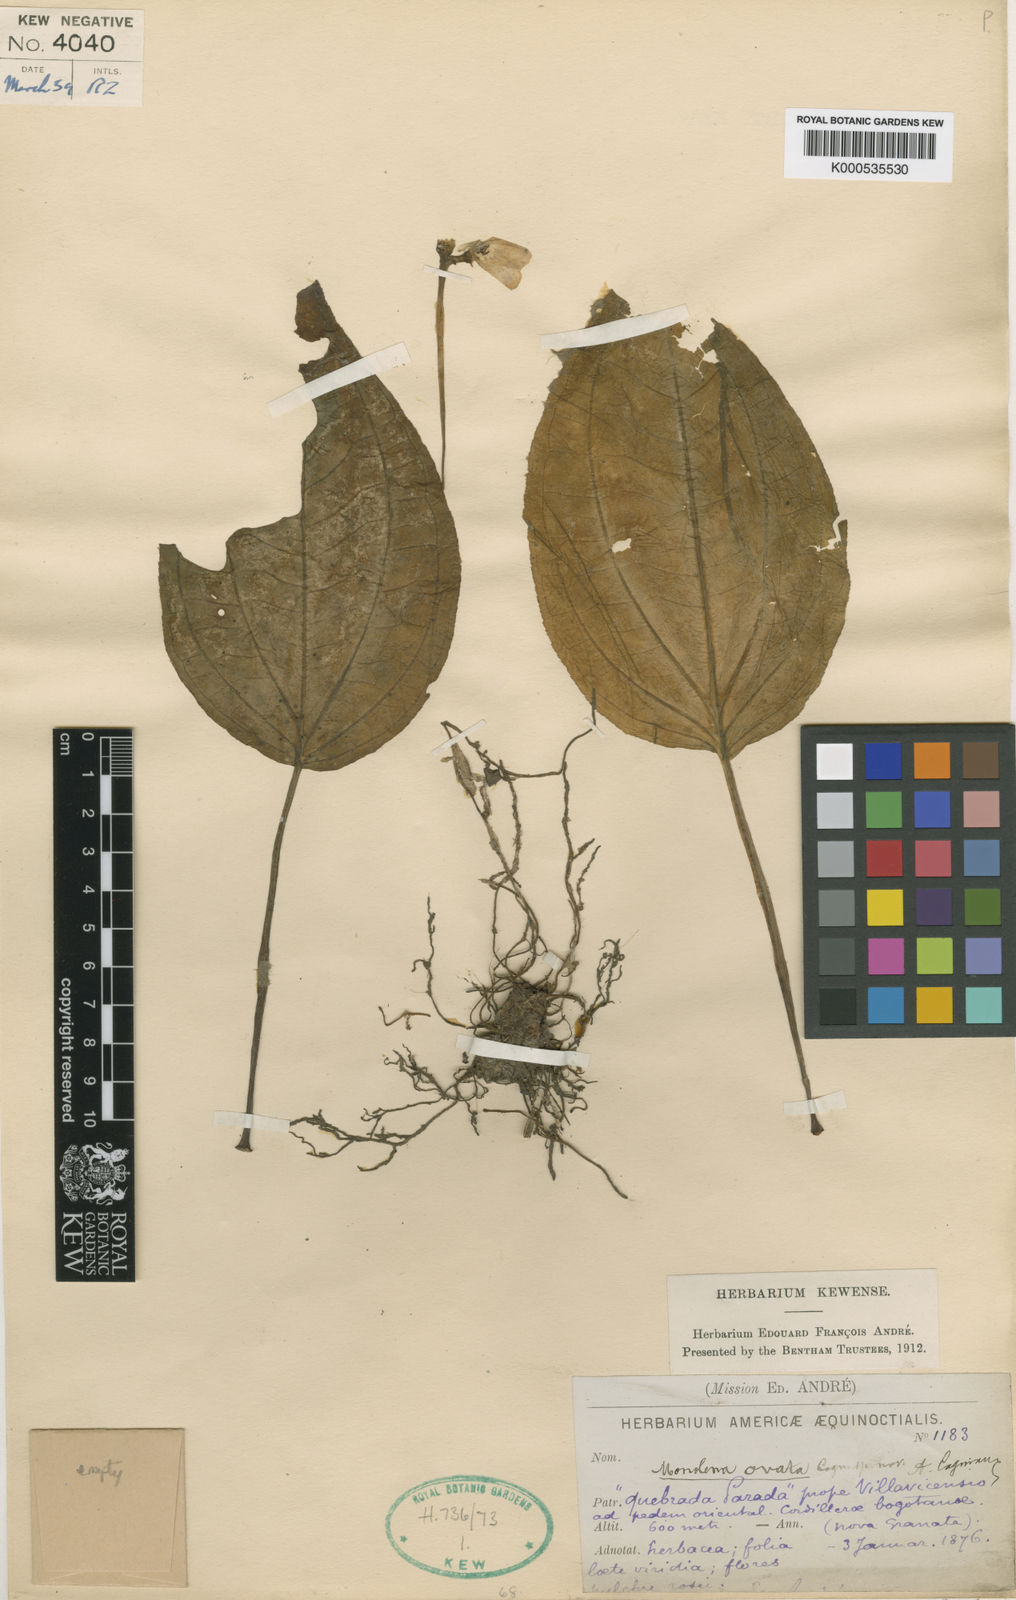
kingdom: Plantae
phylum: Tracheophyta
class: Magnoliopsida
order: Myrtales
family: Melastomataceae
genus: Monolena
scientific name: Monolena ovata
